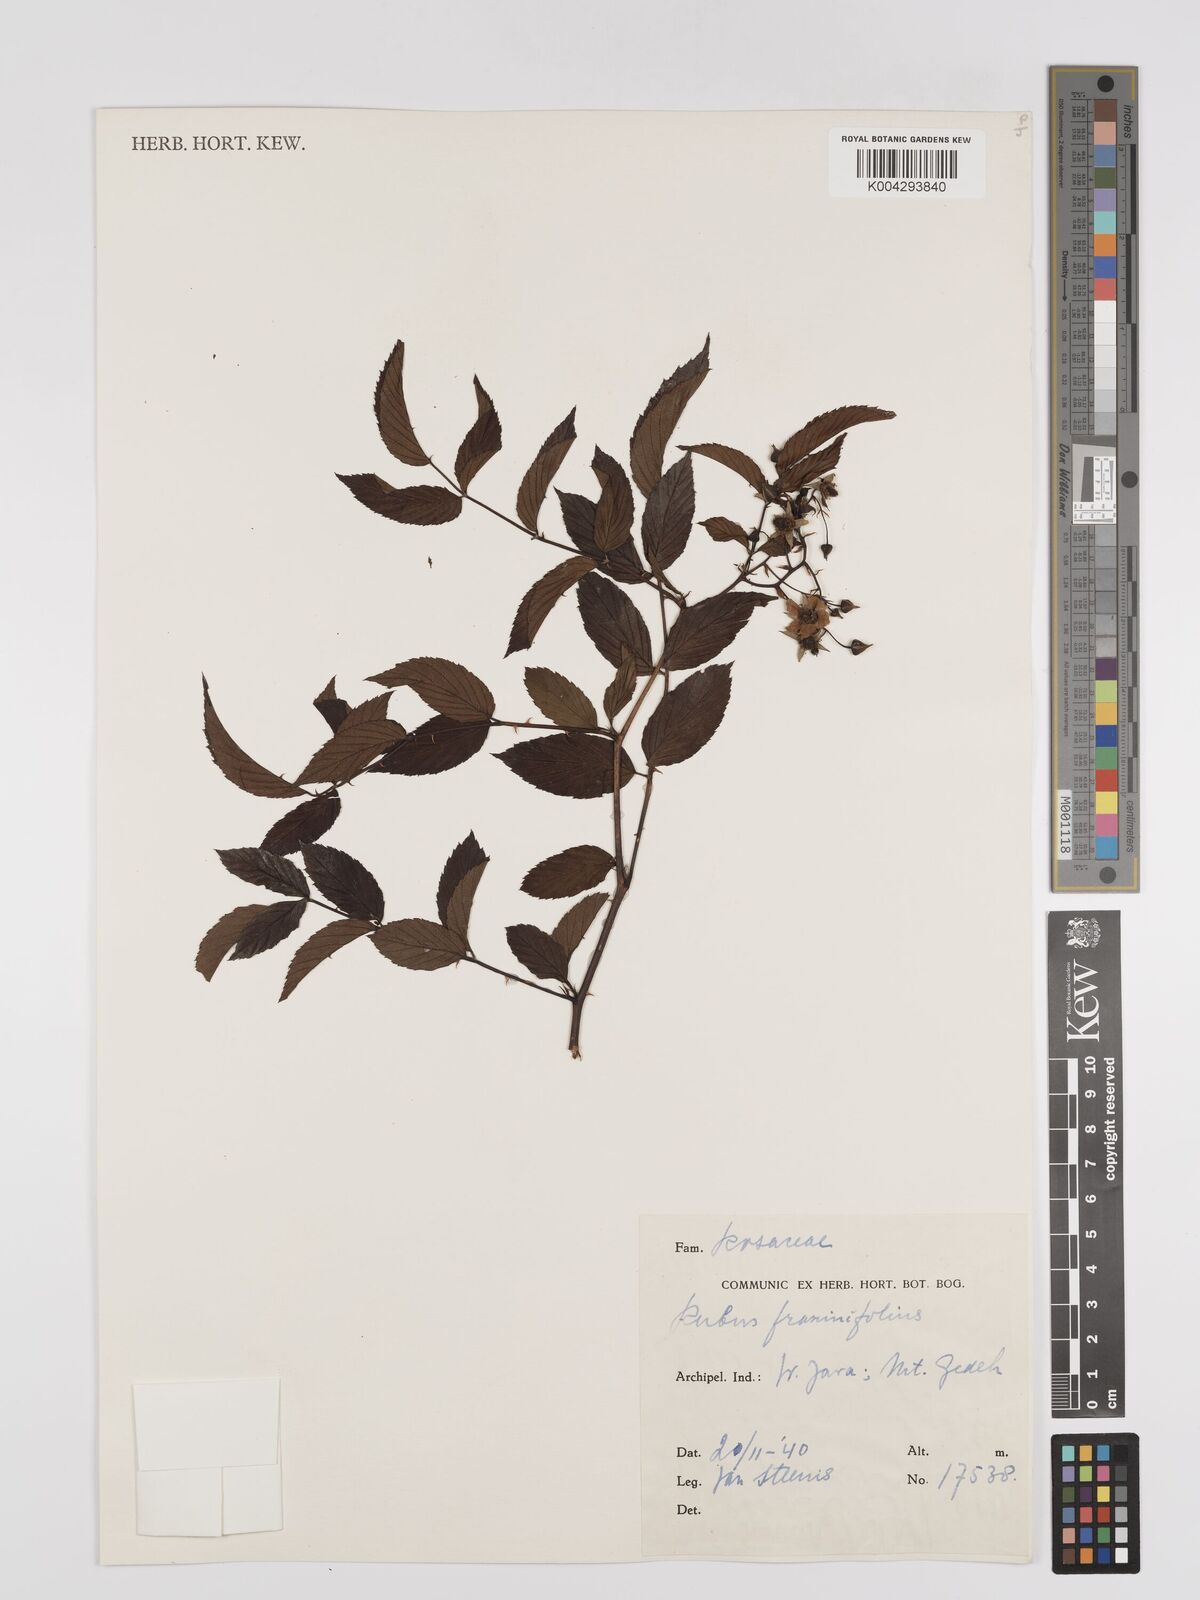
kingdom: Plantae
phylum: Tracheophyta
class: Magnoliopsida
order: Rosales
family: Rosaceae
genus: Rubus
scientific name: Rubus fraxinifolius
